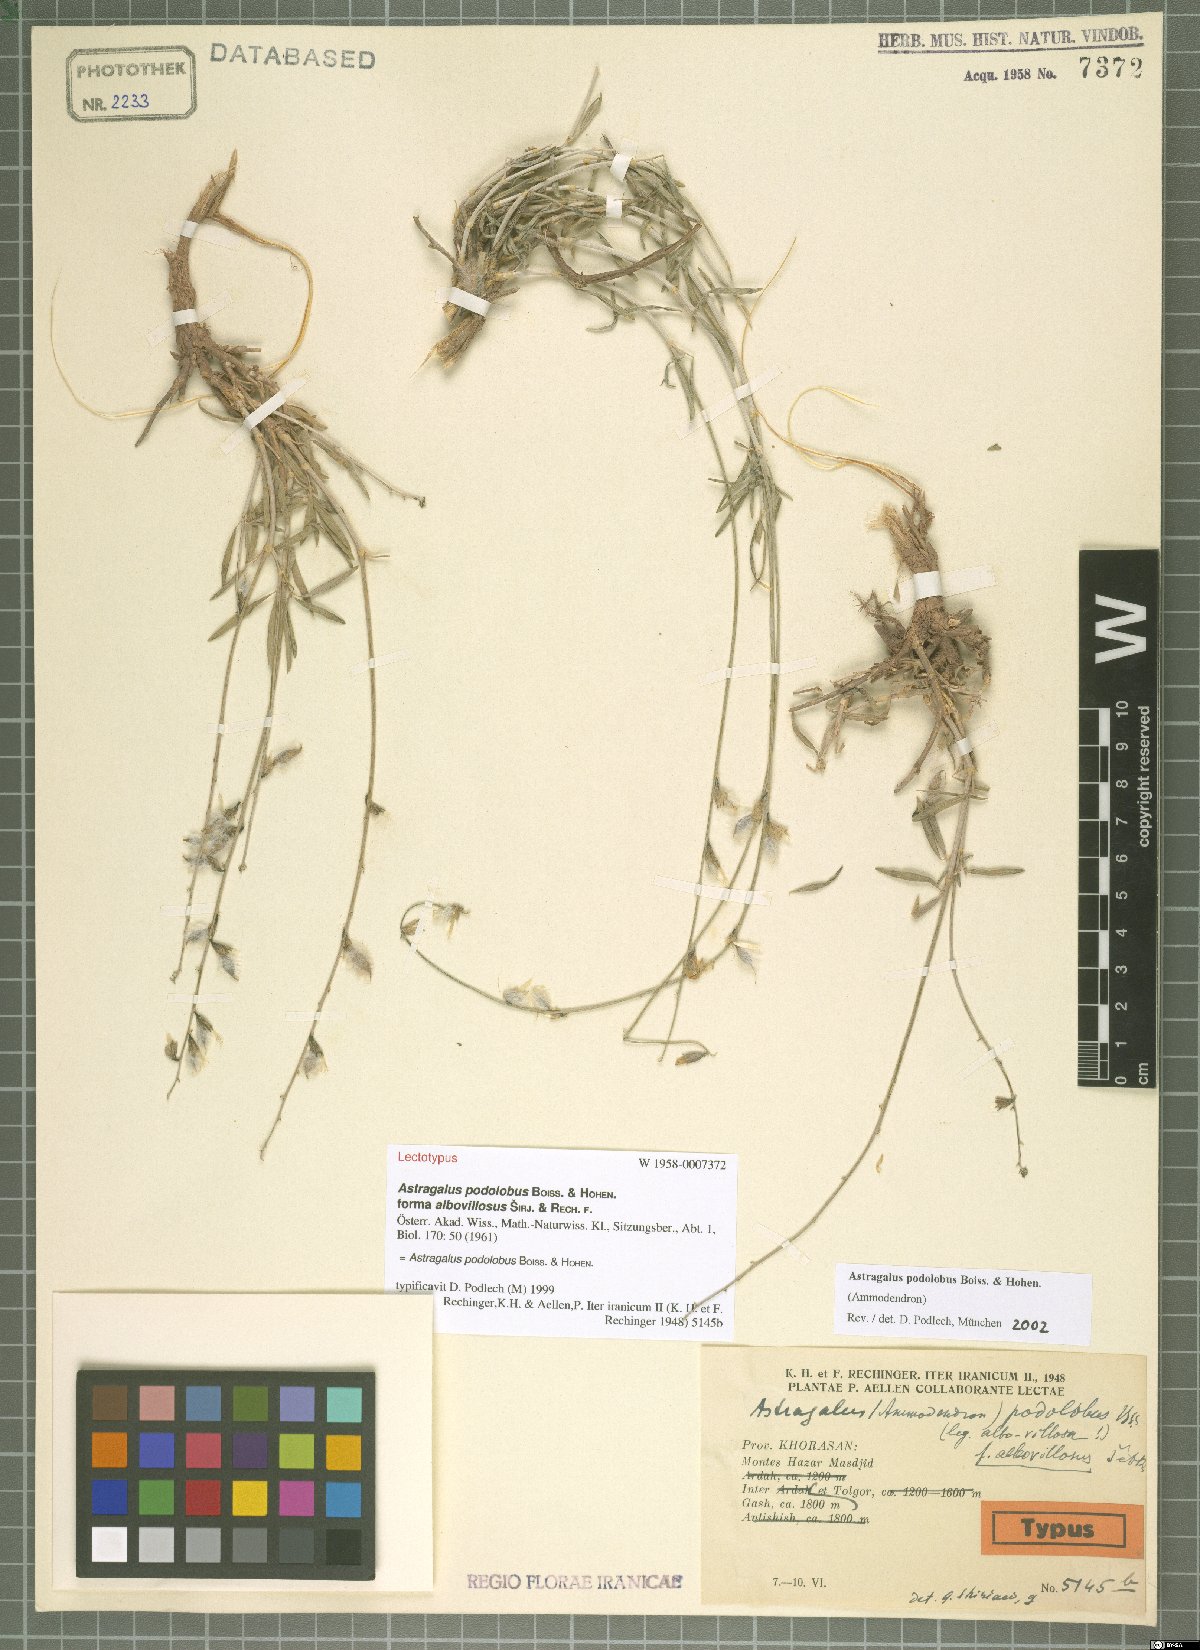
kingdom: Plantae
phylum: Tracheophyta
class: Magnoliopsida
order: Fabales
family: Fabaceae
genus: Astragalus
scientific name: Astragalus podolobus
